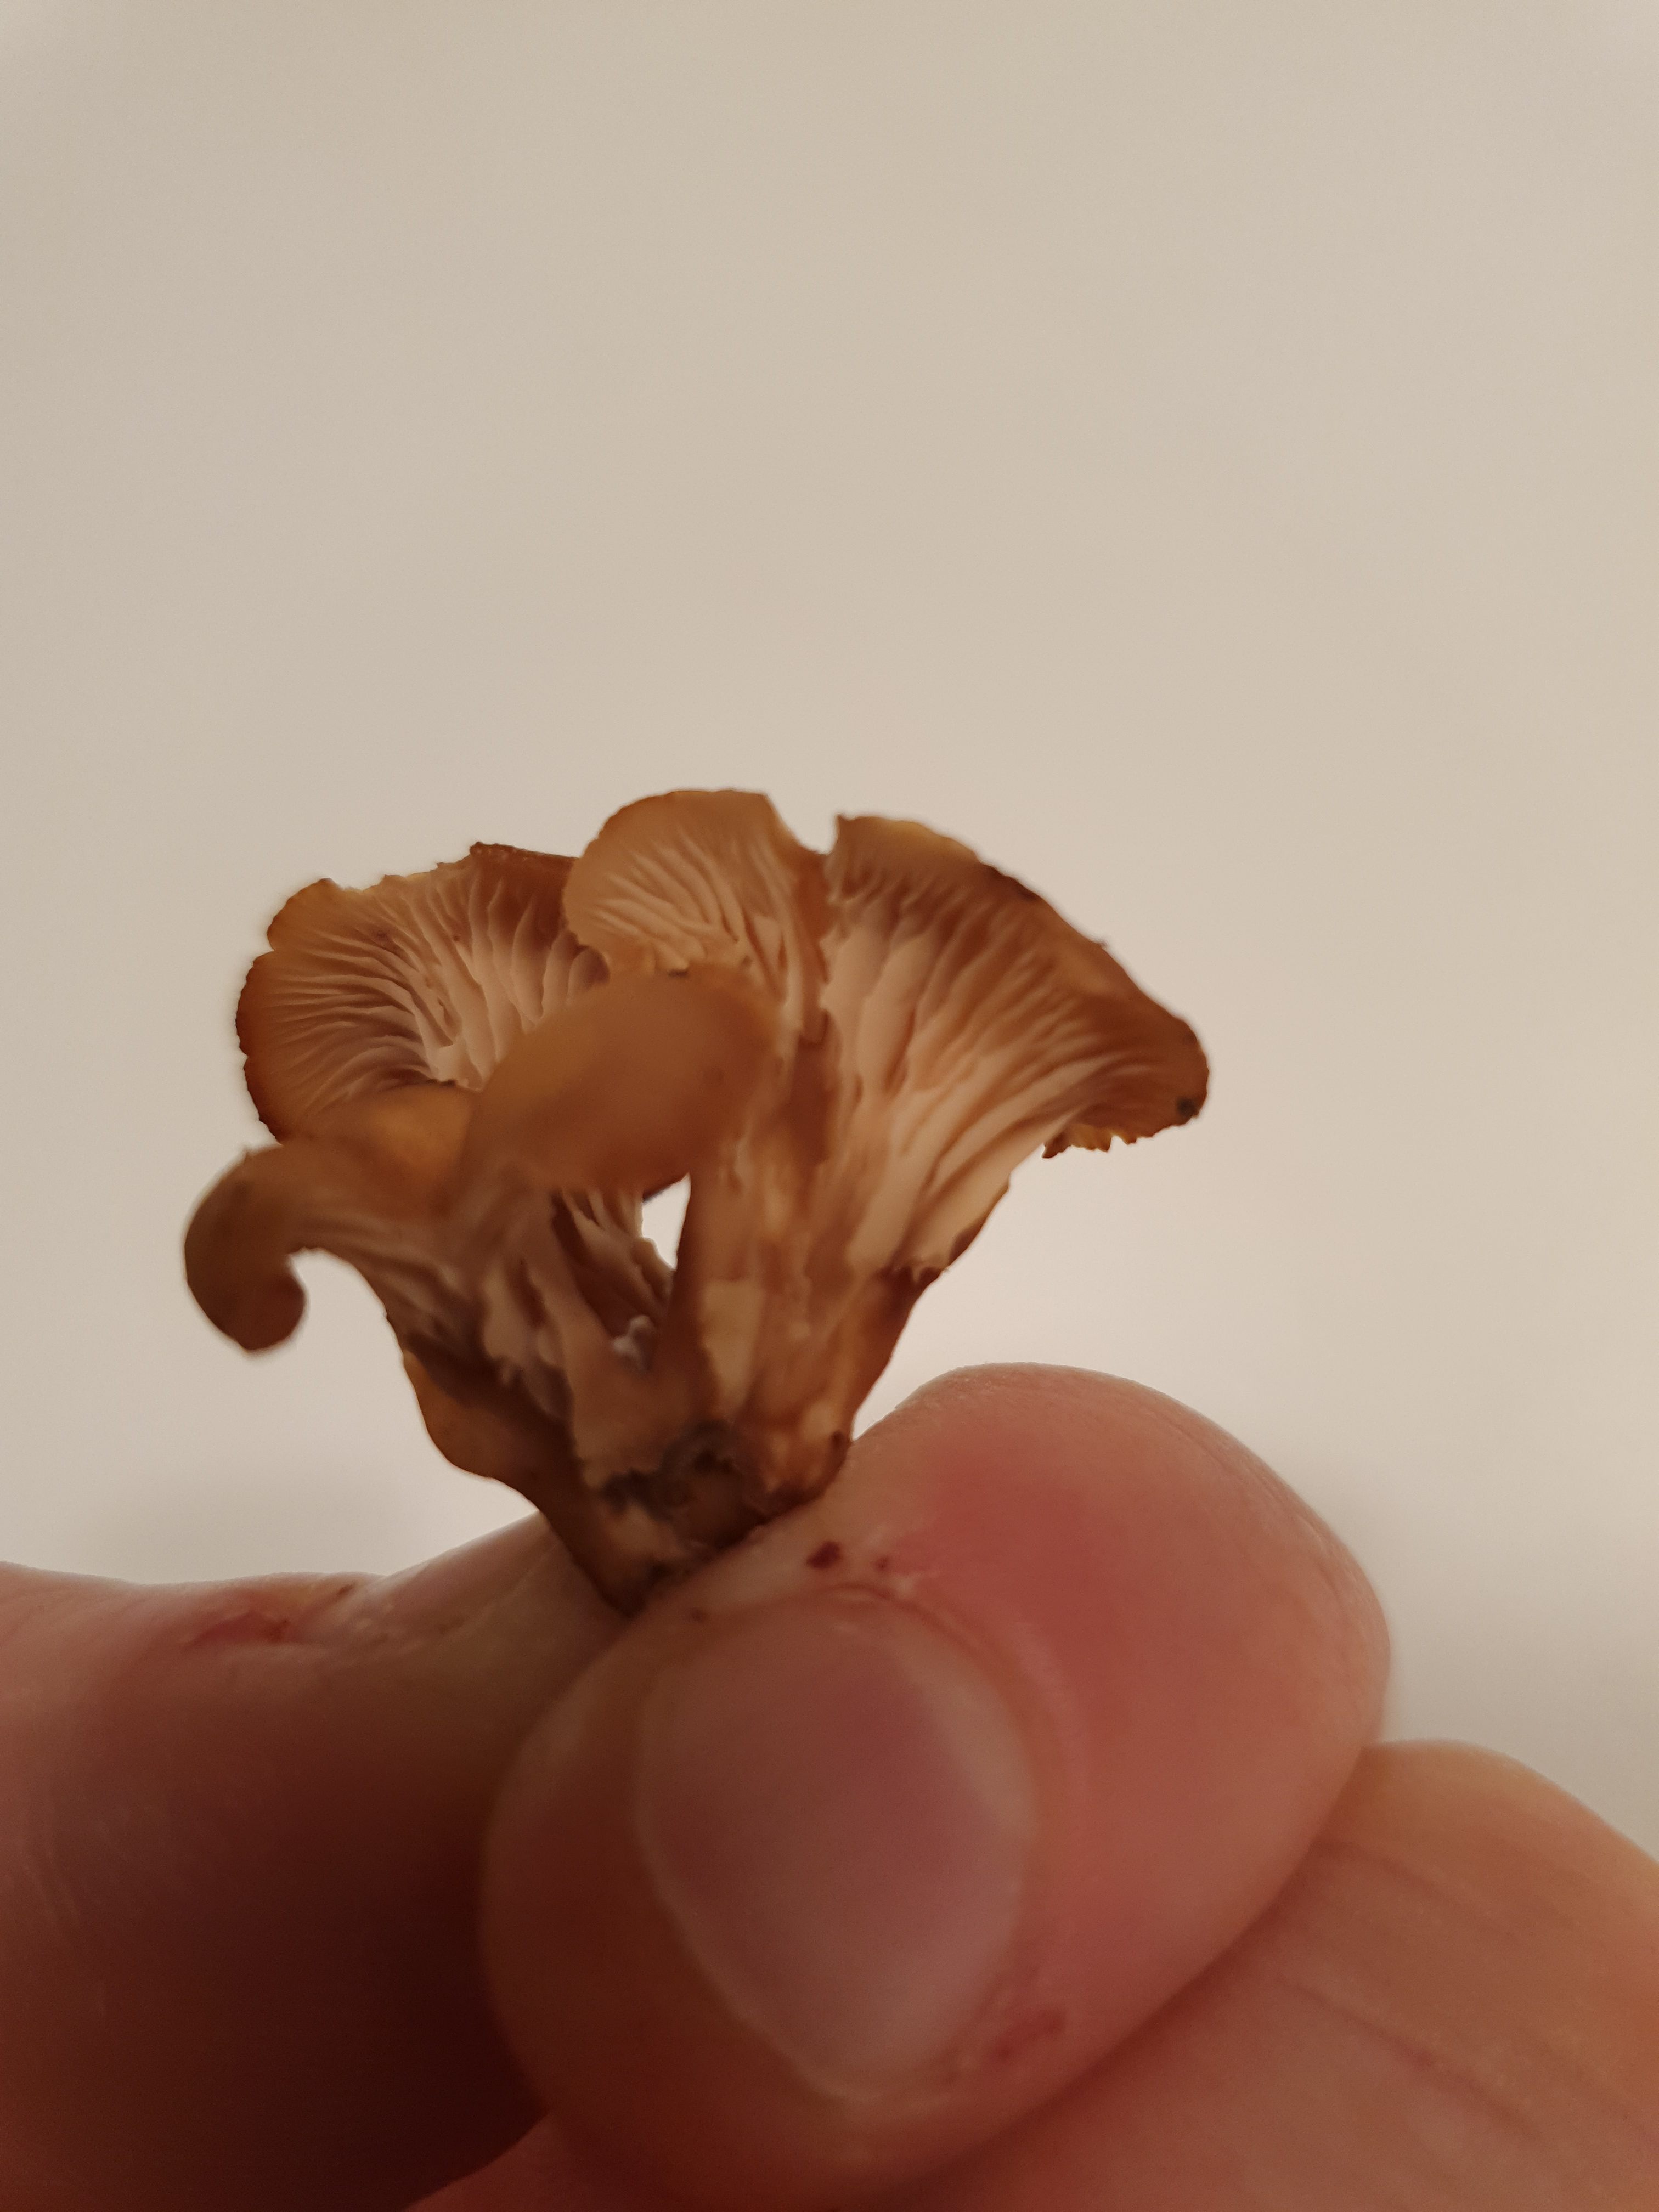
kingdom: Fungi
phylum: Basidiomycota
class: Agaricomycetes
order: Russulales
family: Auriscalpiaceae
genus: Lentinellus
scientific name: Lentinellus cochleatus
